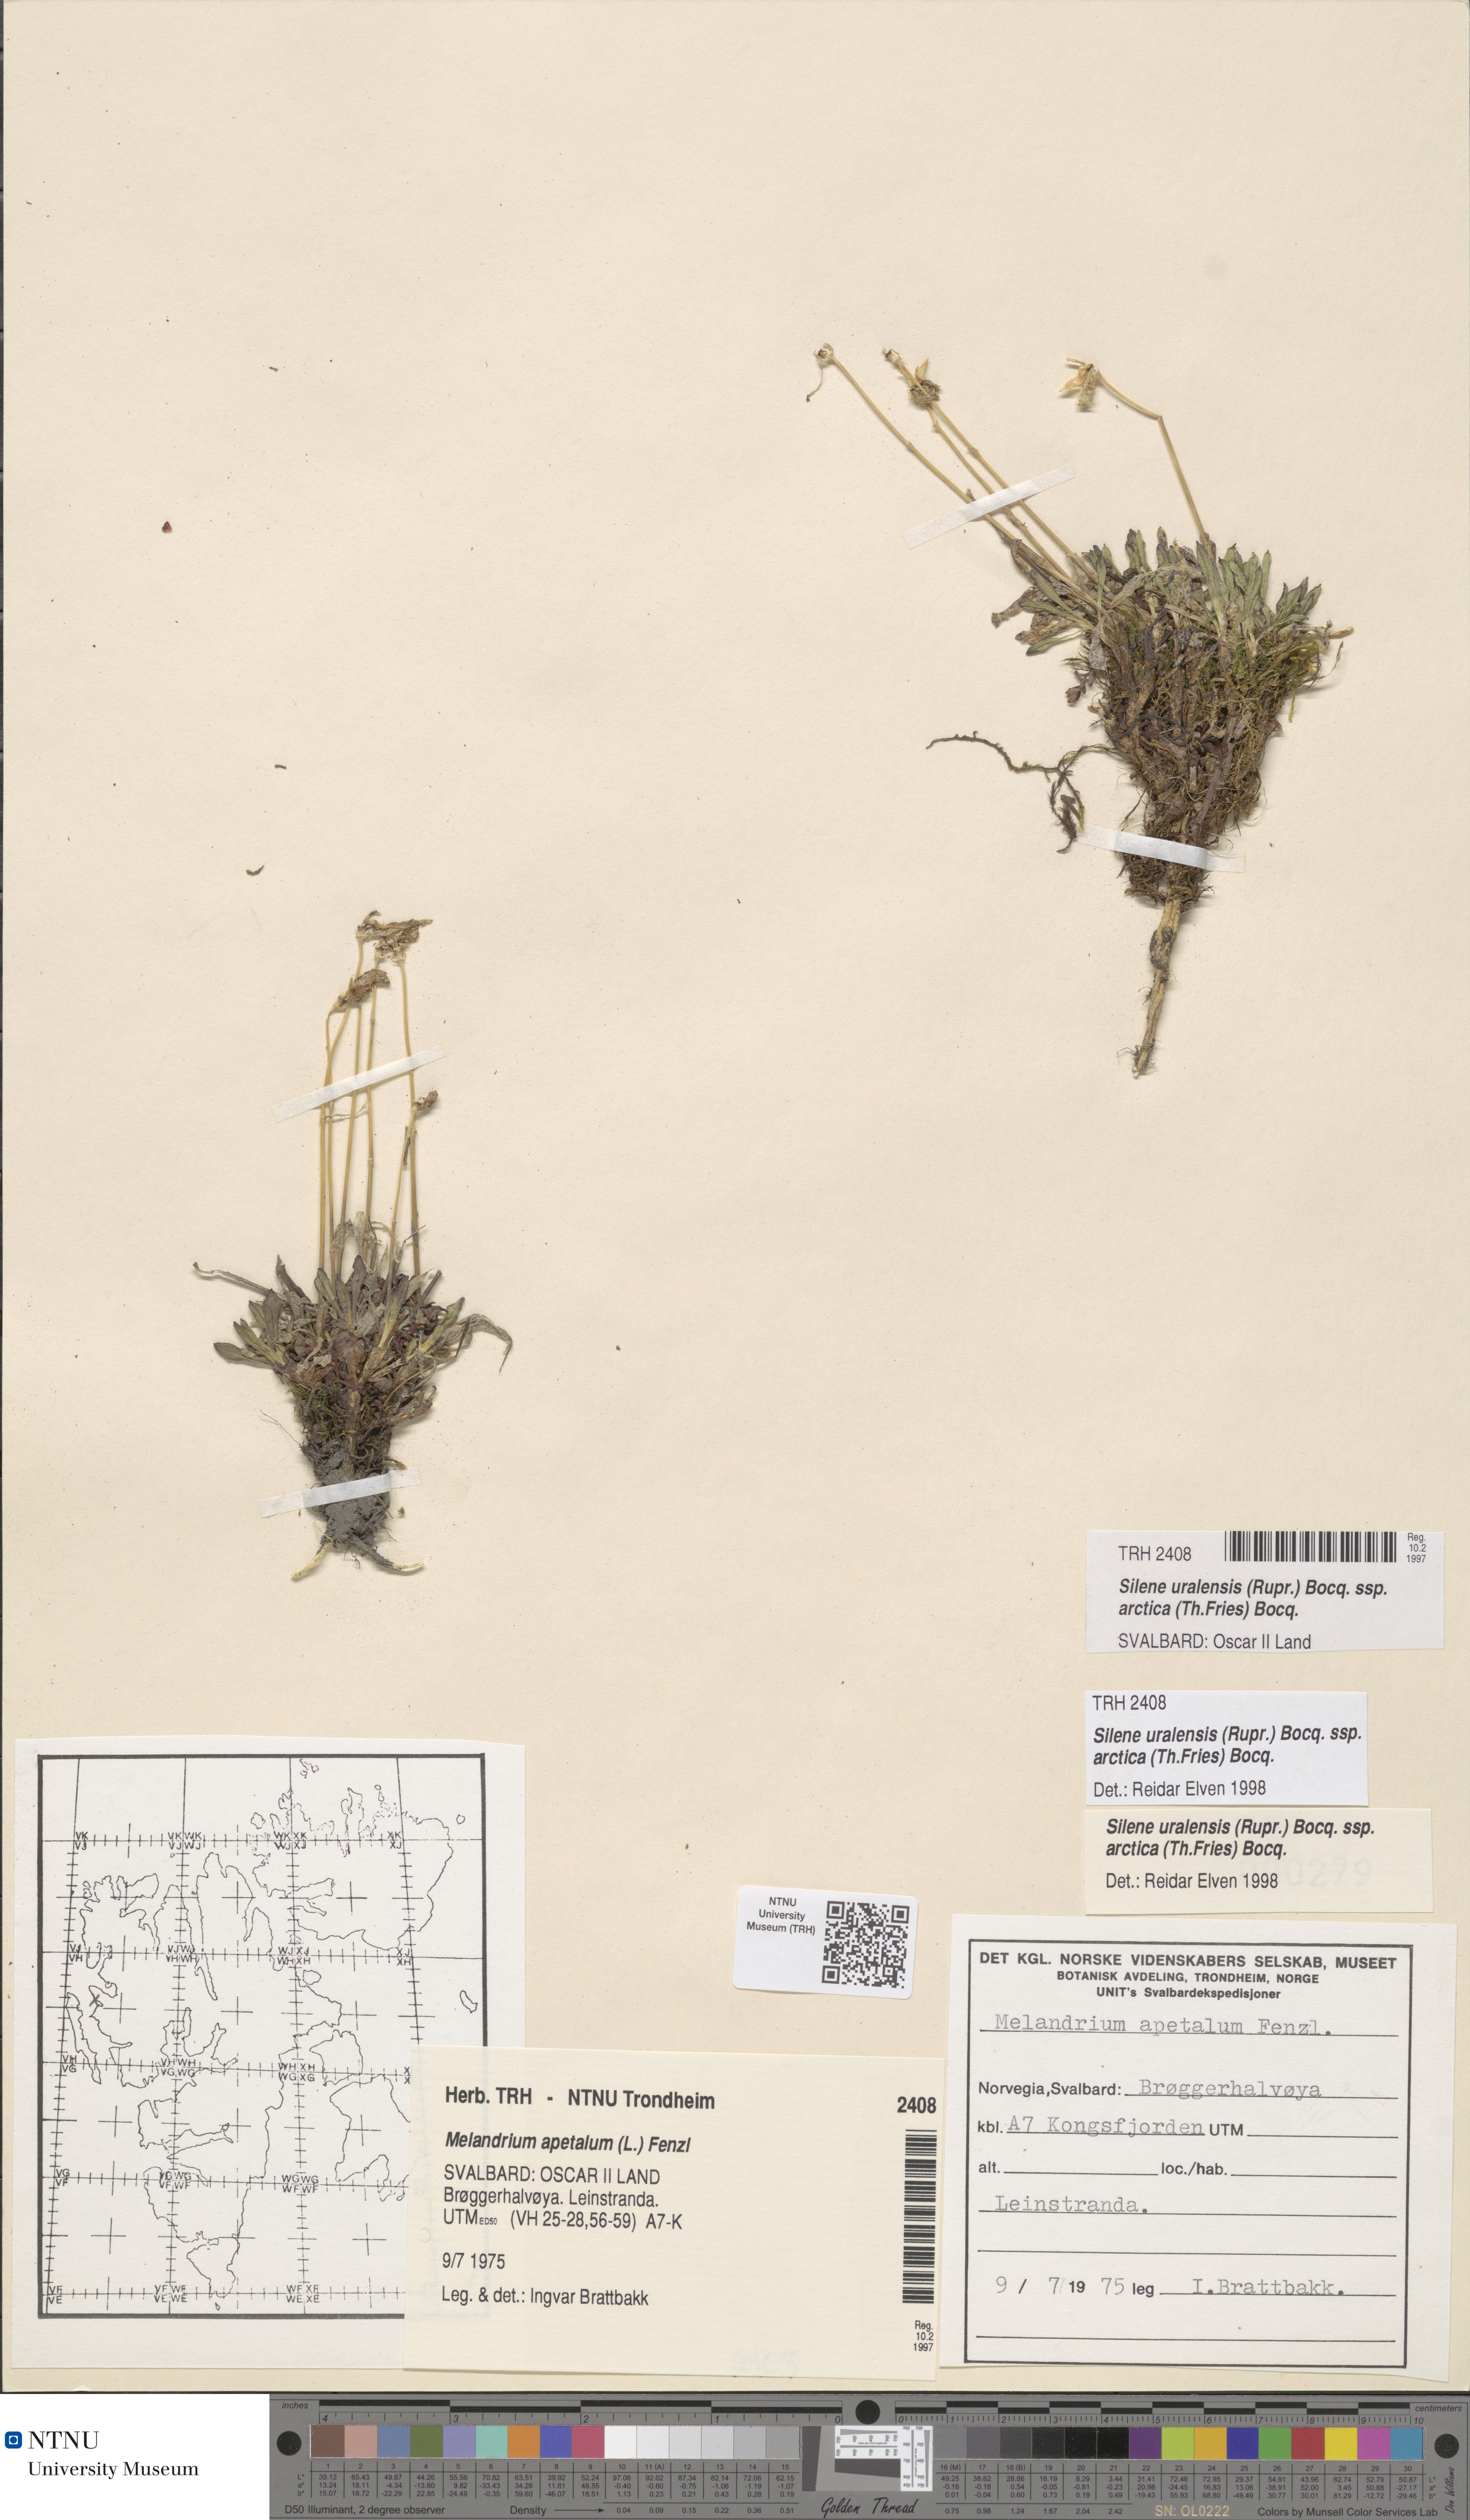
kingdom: Plantae
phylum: Tracheophyta
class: Magnoliopsida
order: Caryophyllales
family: Caryophyllaceae
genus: Silene
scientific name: Silene uralensis
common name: Nodding campion
